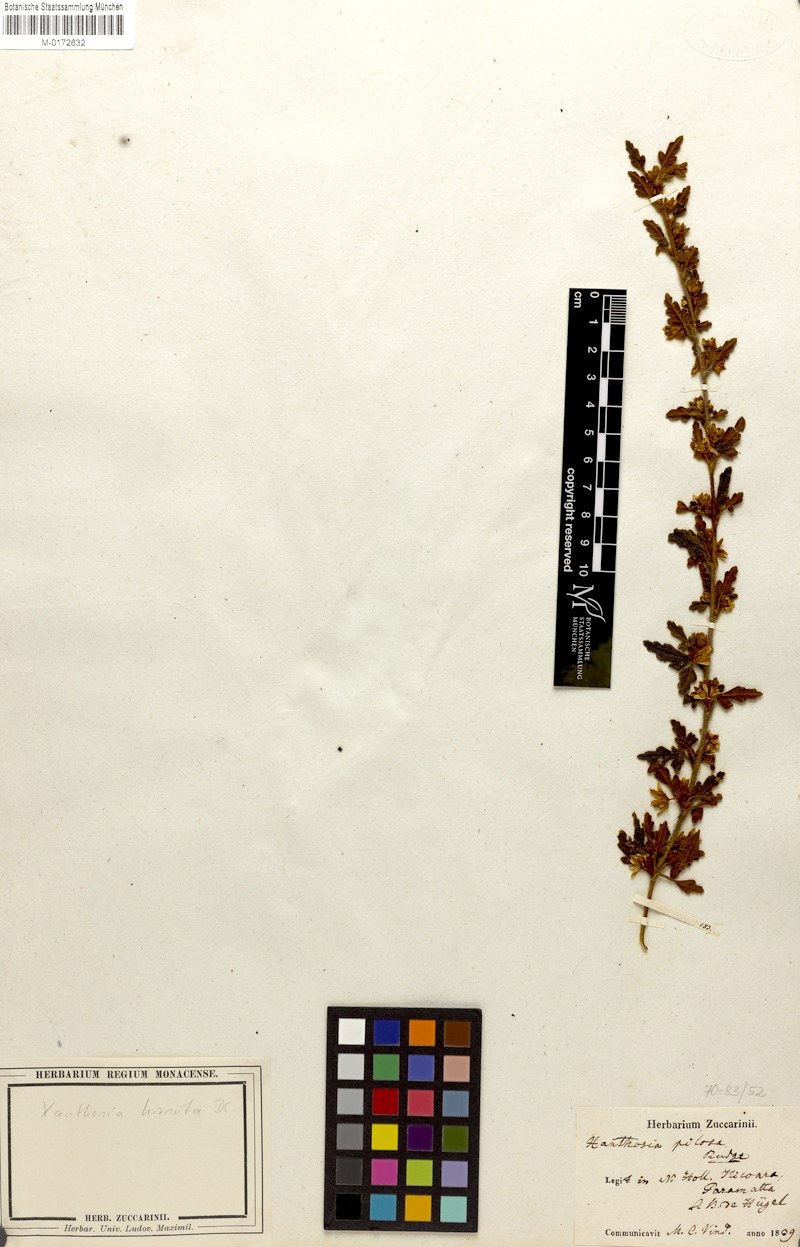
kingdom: Plantae
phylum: Tracheophyta
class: Magnoliopsida
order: Apiales
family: Apiaceae
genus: Xanthosia
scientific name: Xanthosia pilosa
